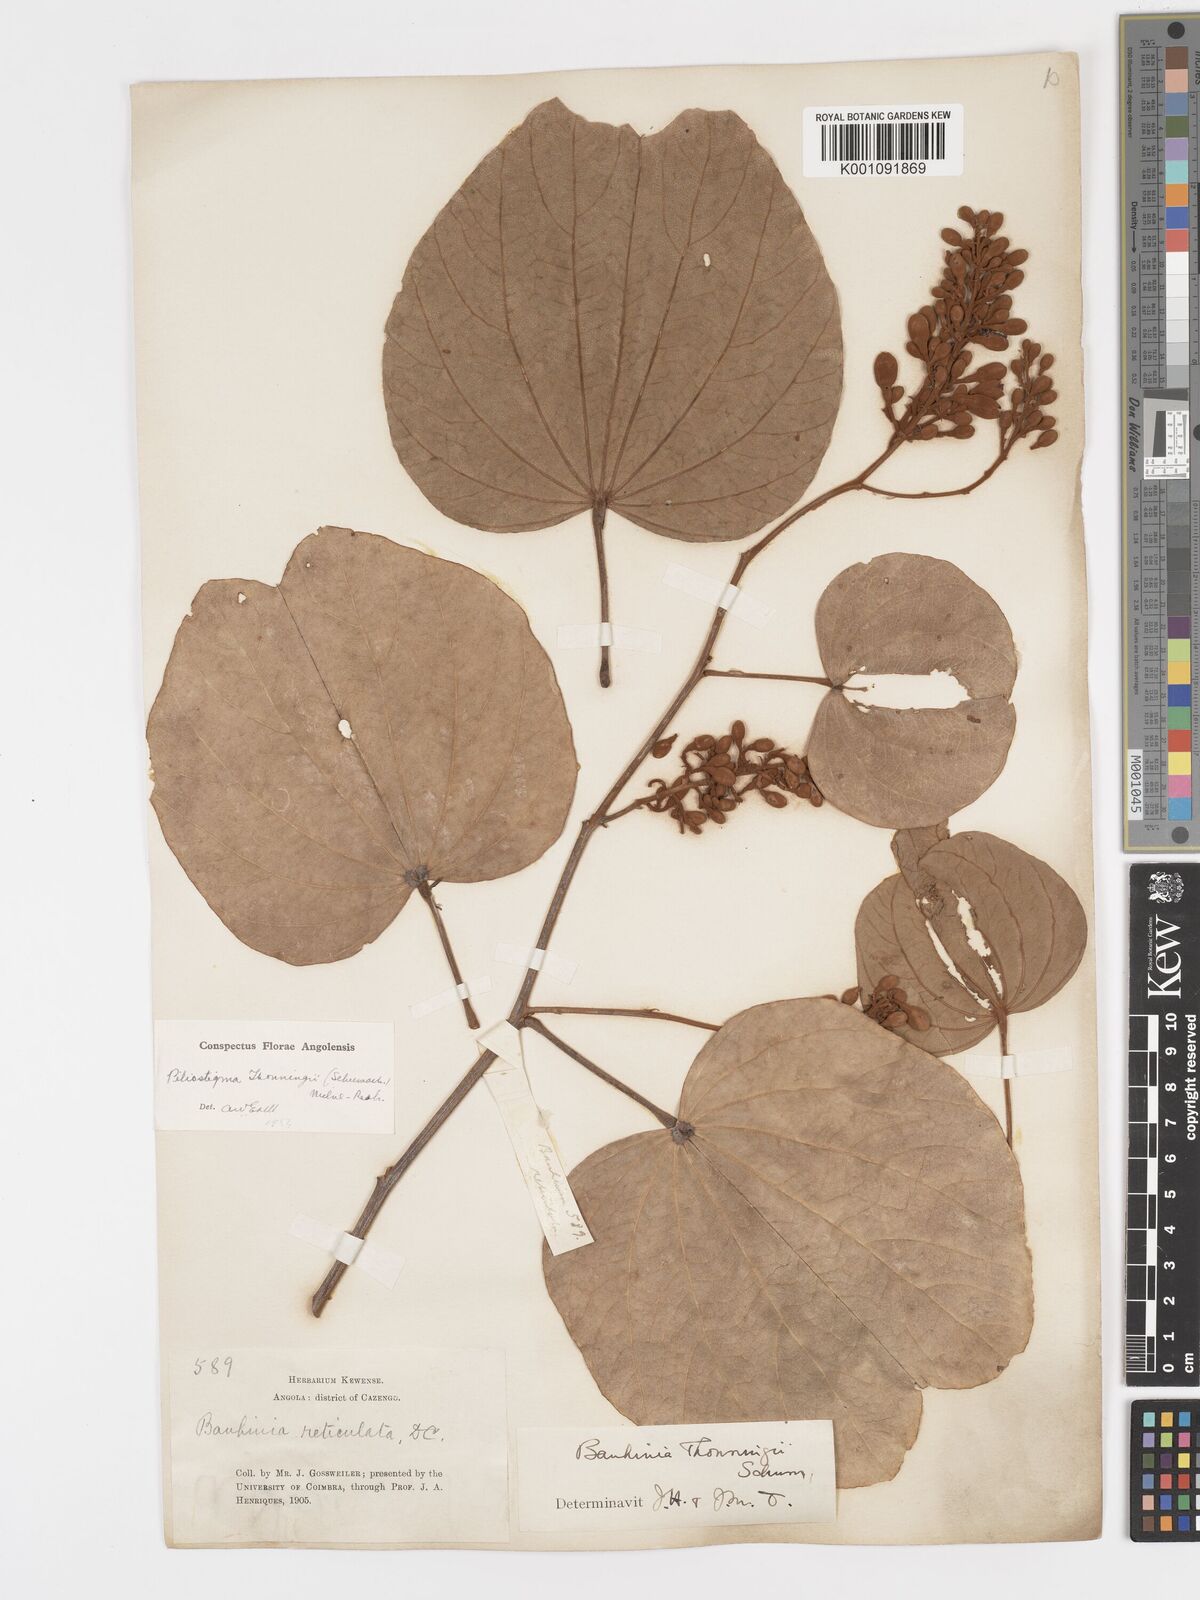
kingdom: Plantae
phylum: Tracheophyta
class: Magnoliopsida
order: Fabales
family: Fabaceae
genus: Piliostigma
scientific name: Piliostigma thonningii
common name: Kao
